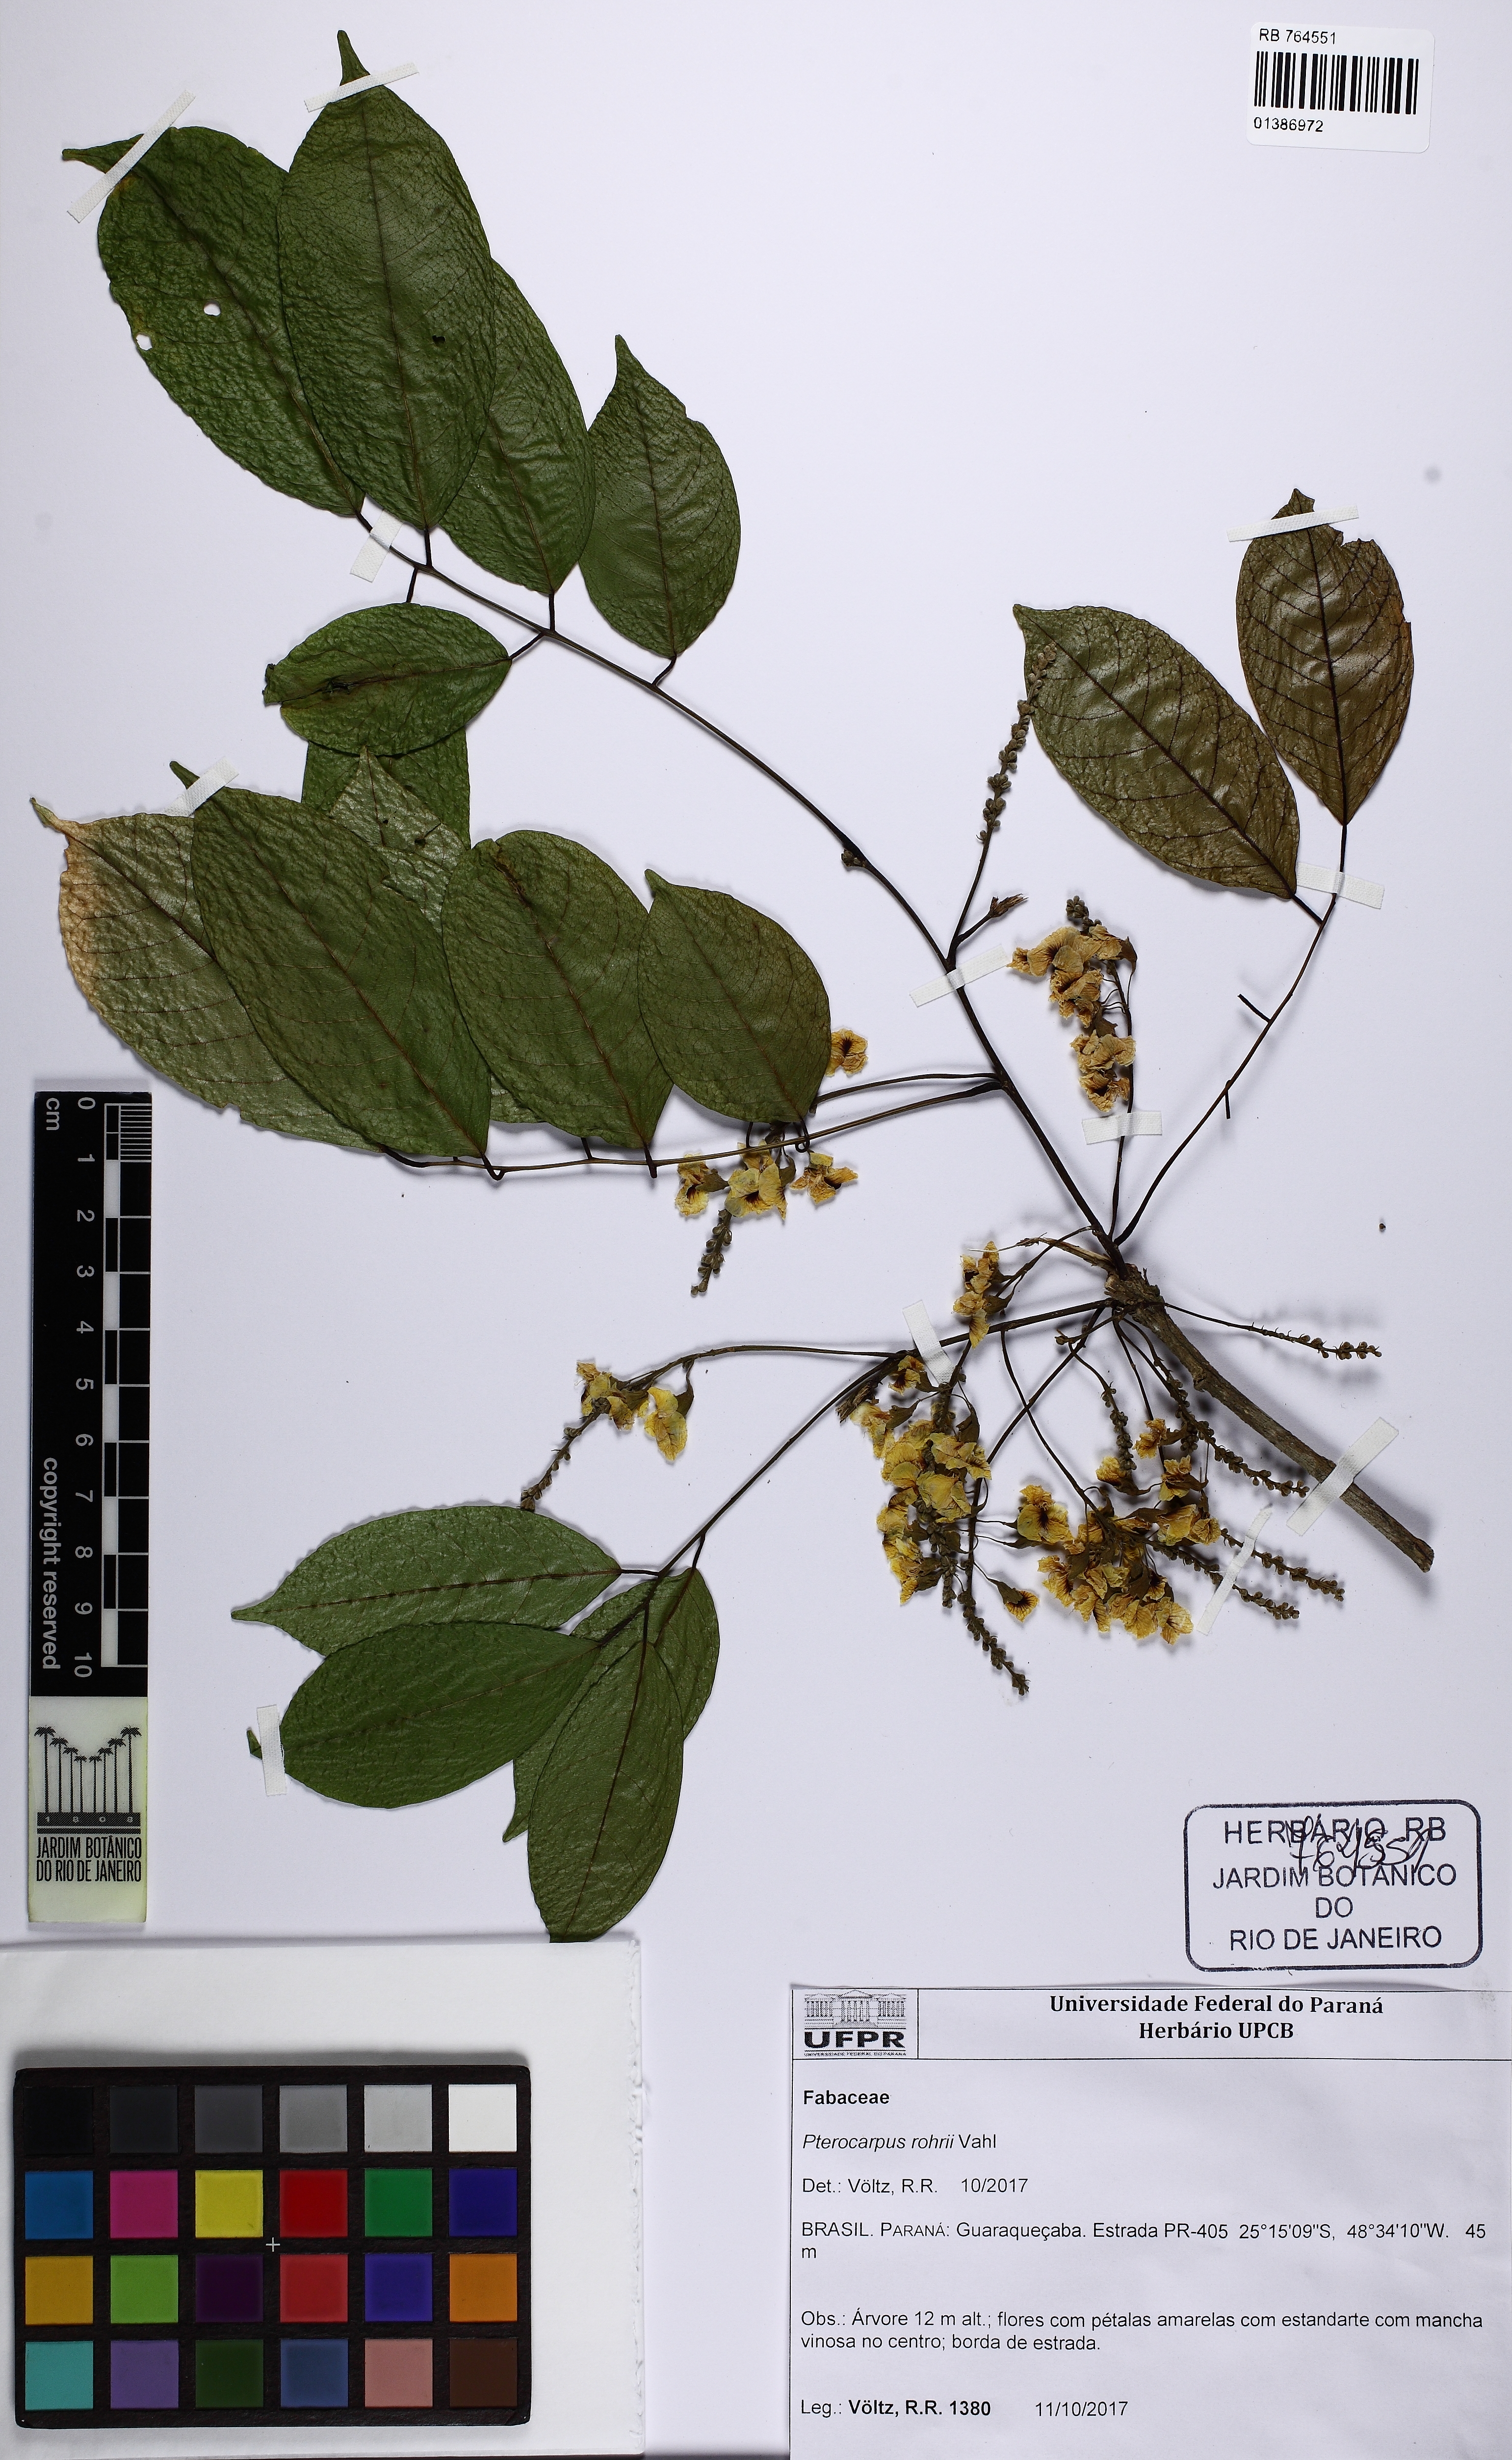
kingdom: Plantae
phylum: Tracheophyta
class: Magnoliopsida
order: Fabales
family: Fabaceae
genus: Pterocarpus
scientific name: Pterocarpus rohrii
